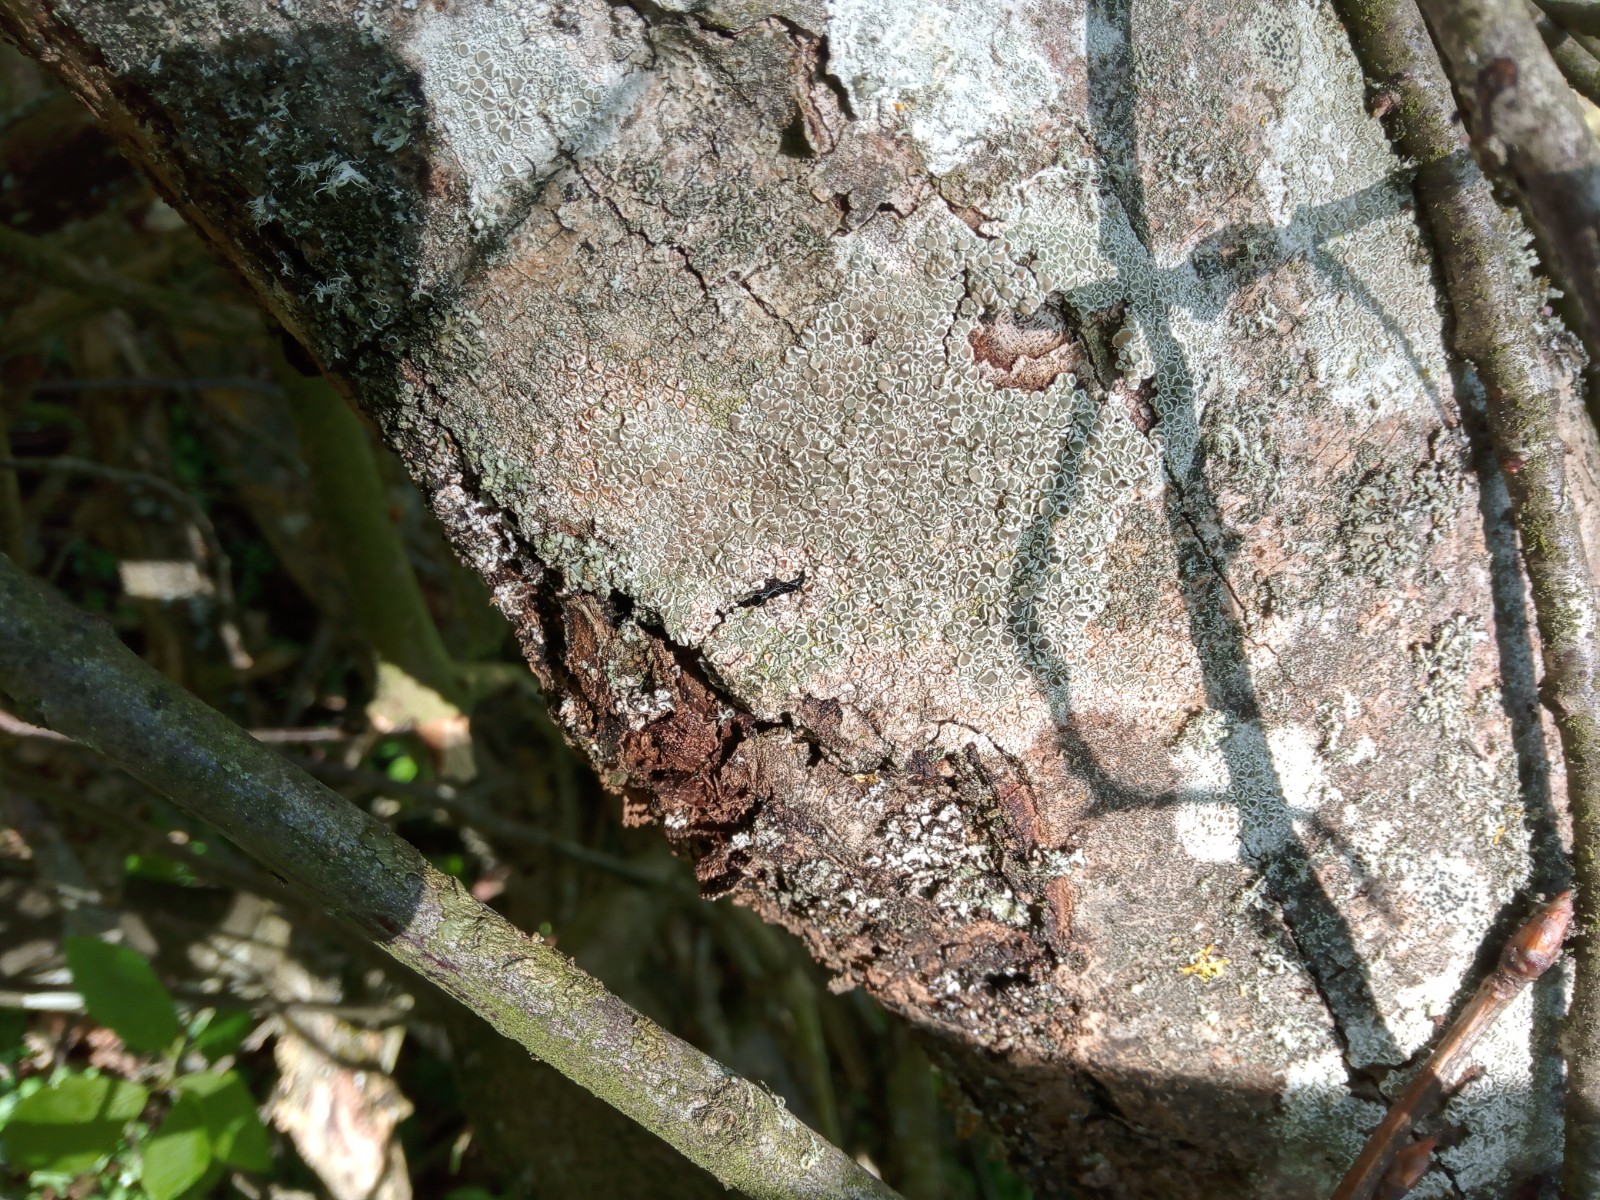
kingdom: Fungi
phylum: Ascomycota
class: Lecanoromycetes
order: Lecanorales
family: Lecanoraceae
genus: Lecanora
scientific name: Lecanora chlarotera
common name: brun kantskivelav
